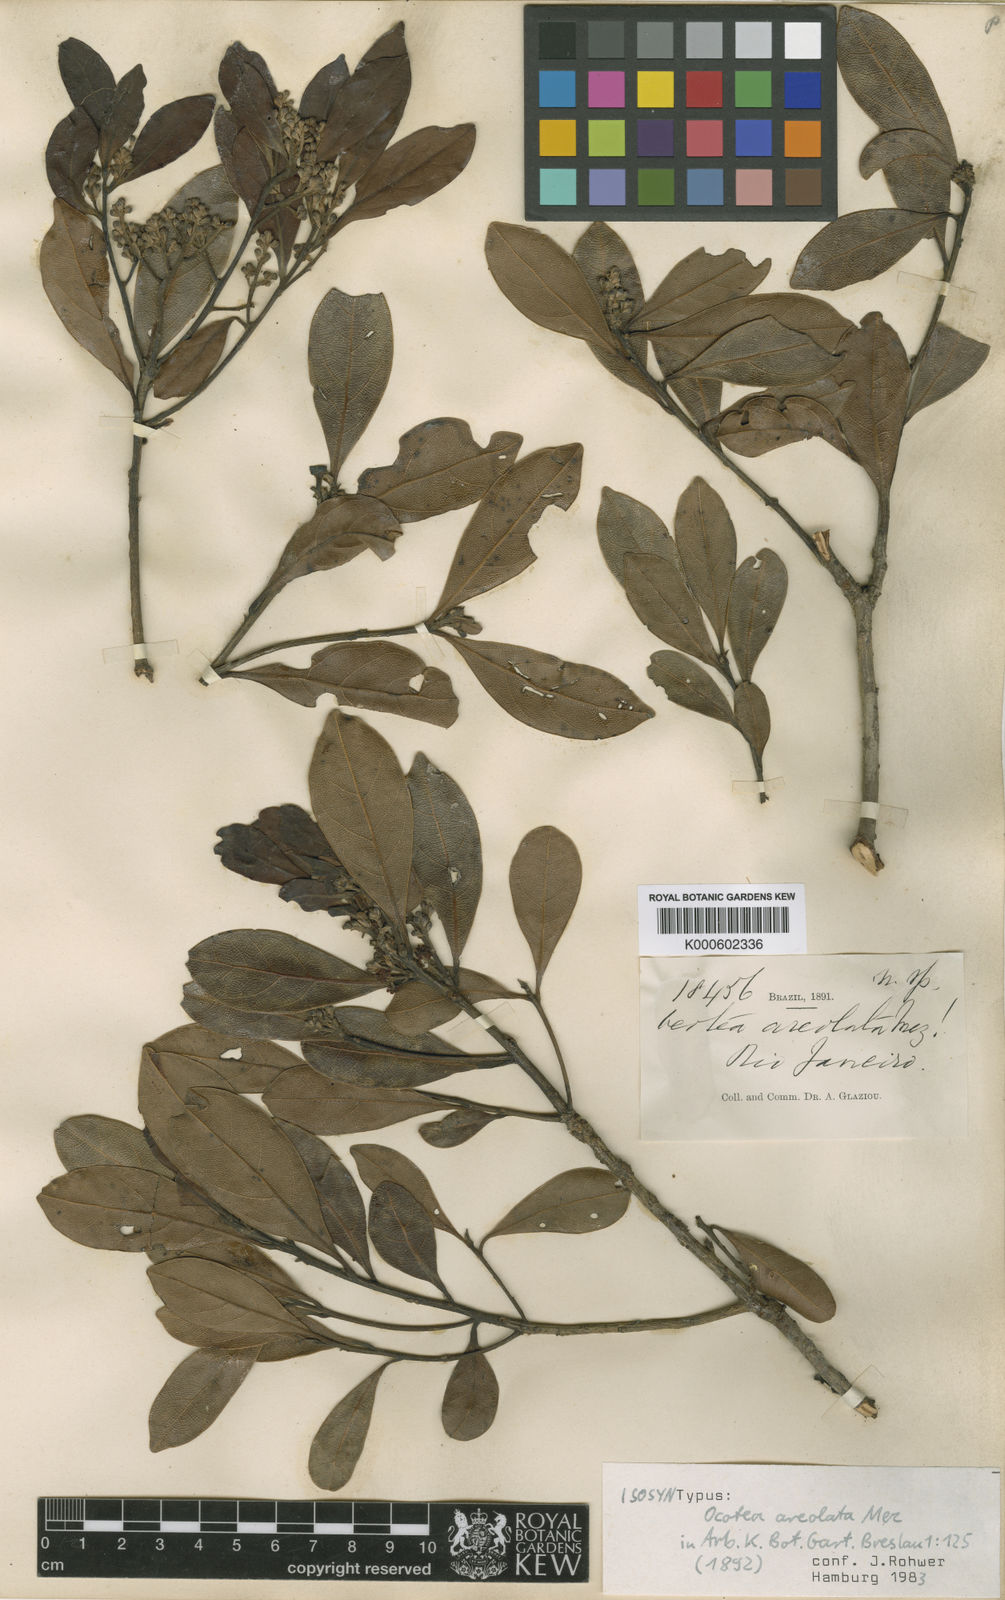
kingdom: Plantae
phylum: Tracheophyta
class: Magnoliopsida
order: Laurales
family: Lauraceae
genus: Mespilodaphne
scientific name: Mespilodaphne tristis
